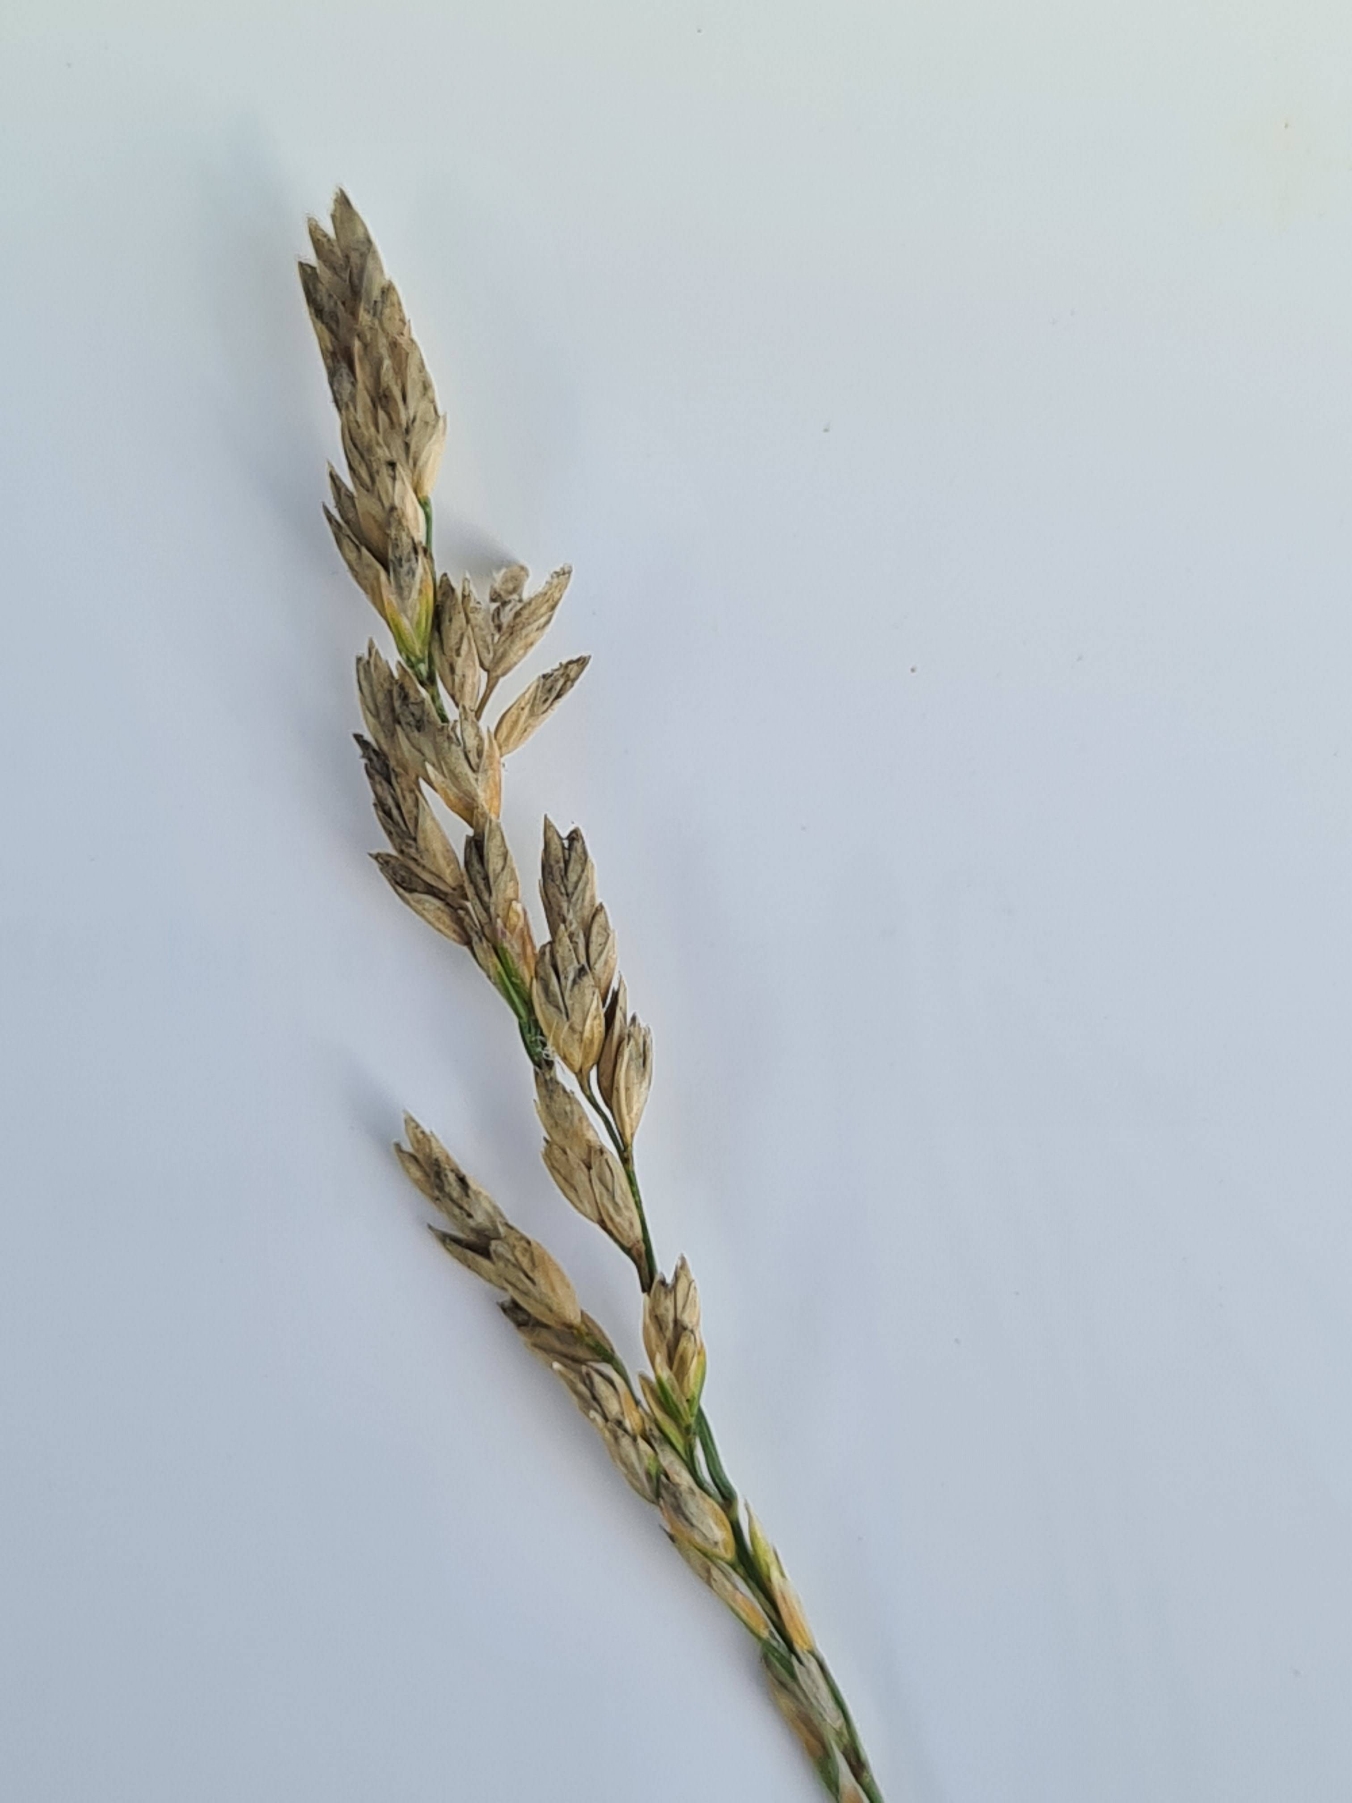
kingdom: Plantae
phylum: Tracheophyta
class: Liliopsida
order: Poales
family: Poaceae
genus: Poa
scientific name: Poa compressa
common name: Fladstrået rapgræs
